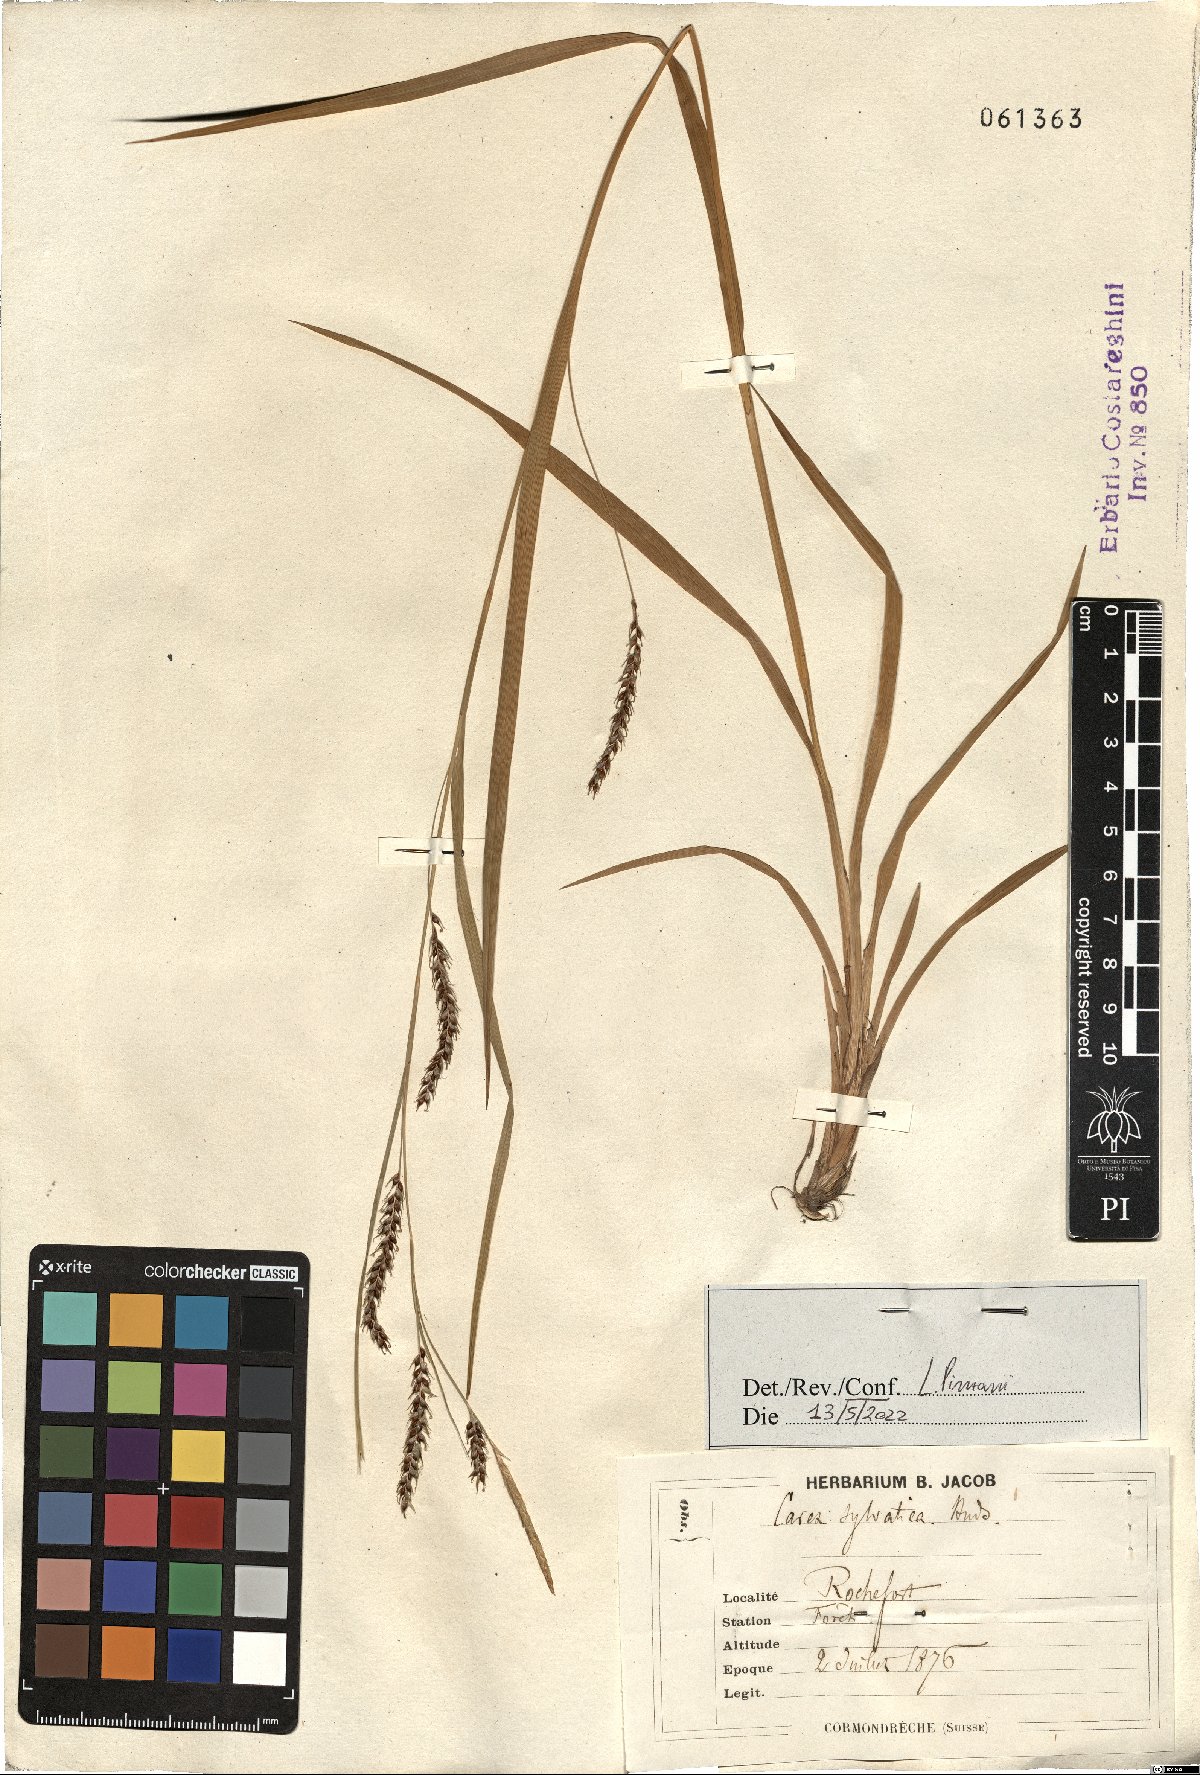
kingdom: Plantae
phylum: Tracheophyta
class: Liliopsida
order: Poales
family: Cyperaceae
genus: Carex
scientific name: Carex sylvatica
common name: Wood-sedge
